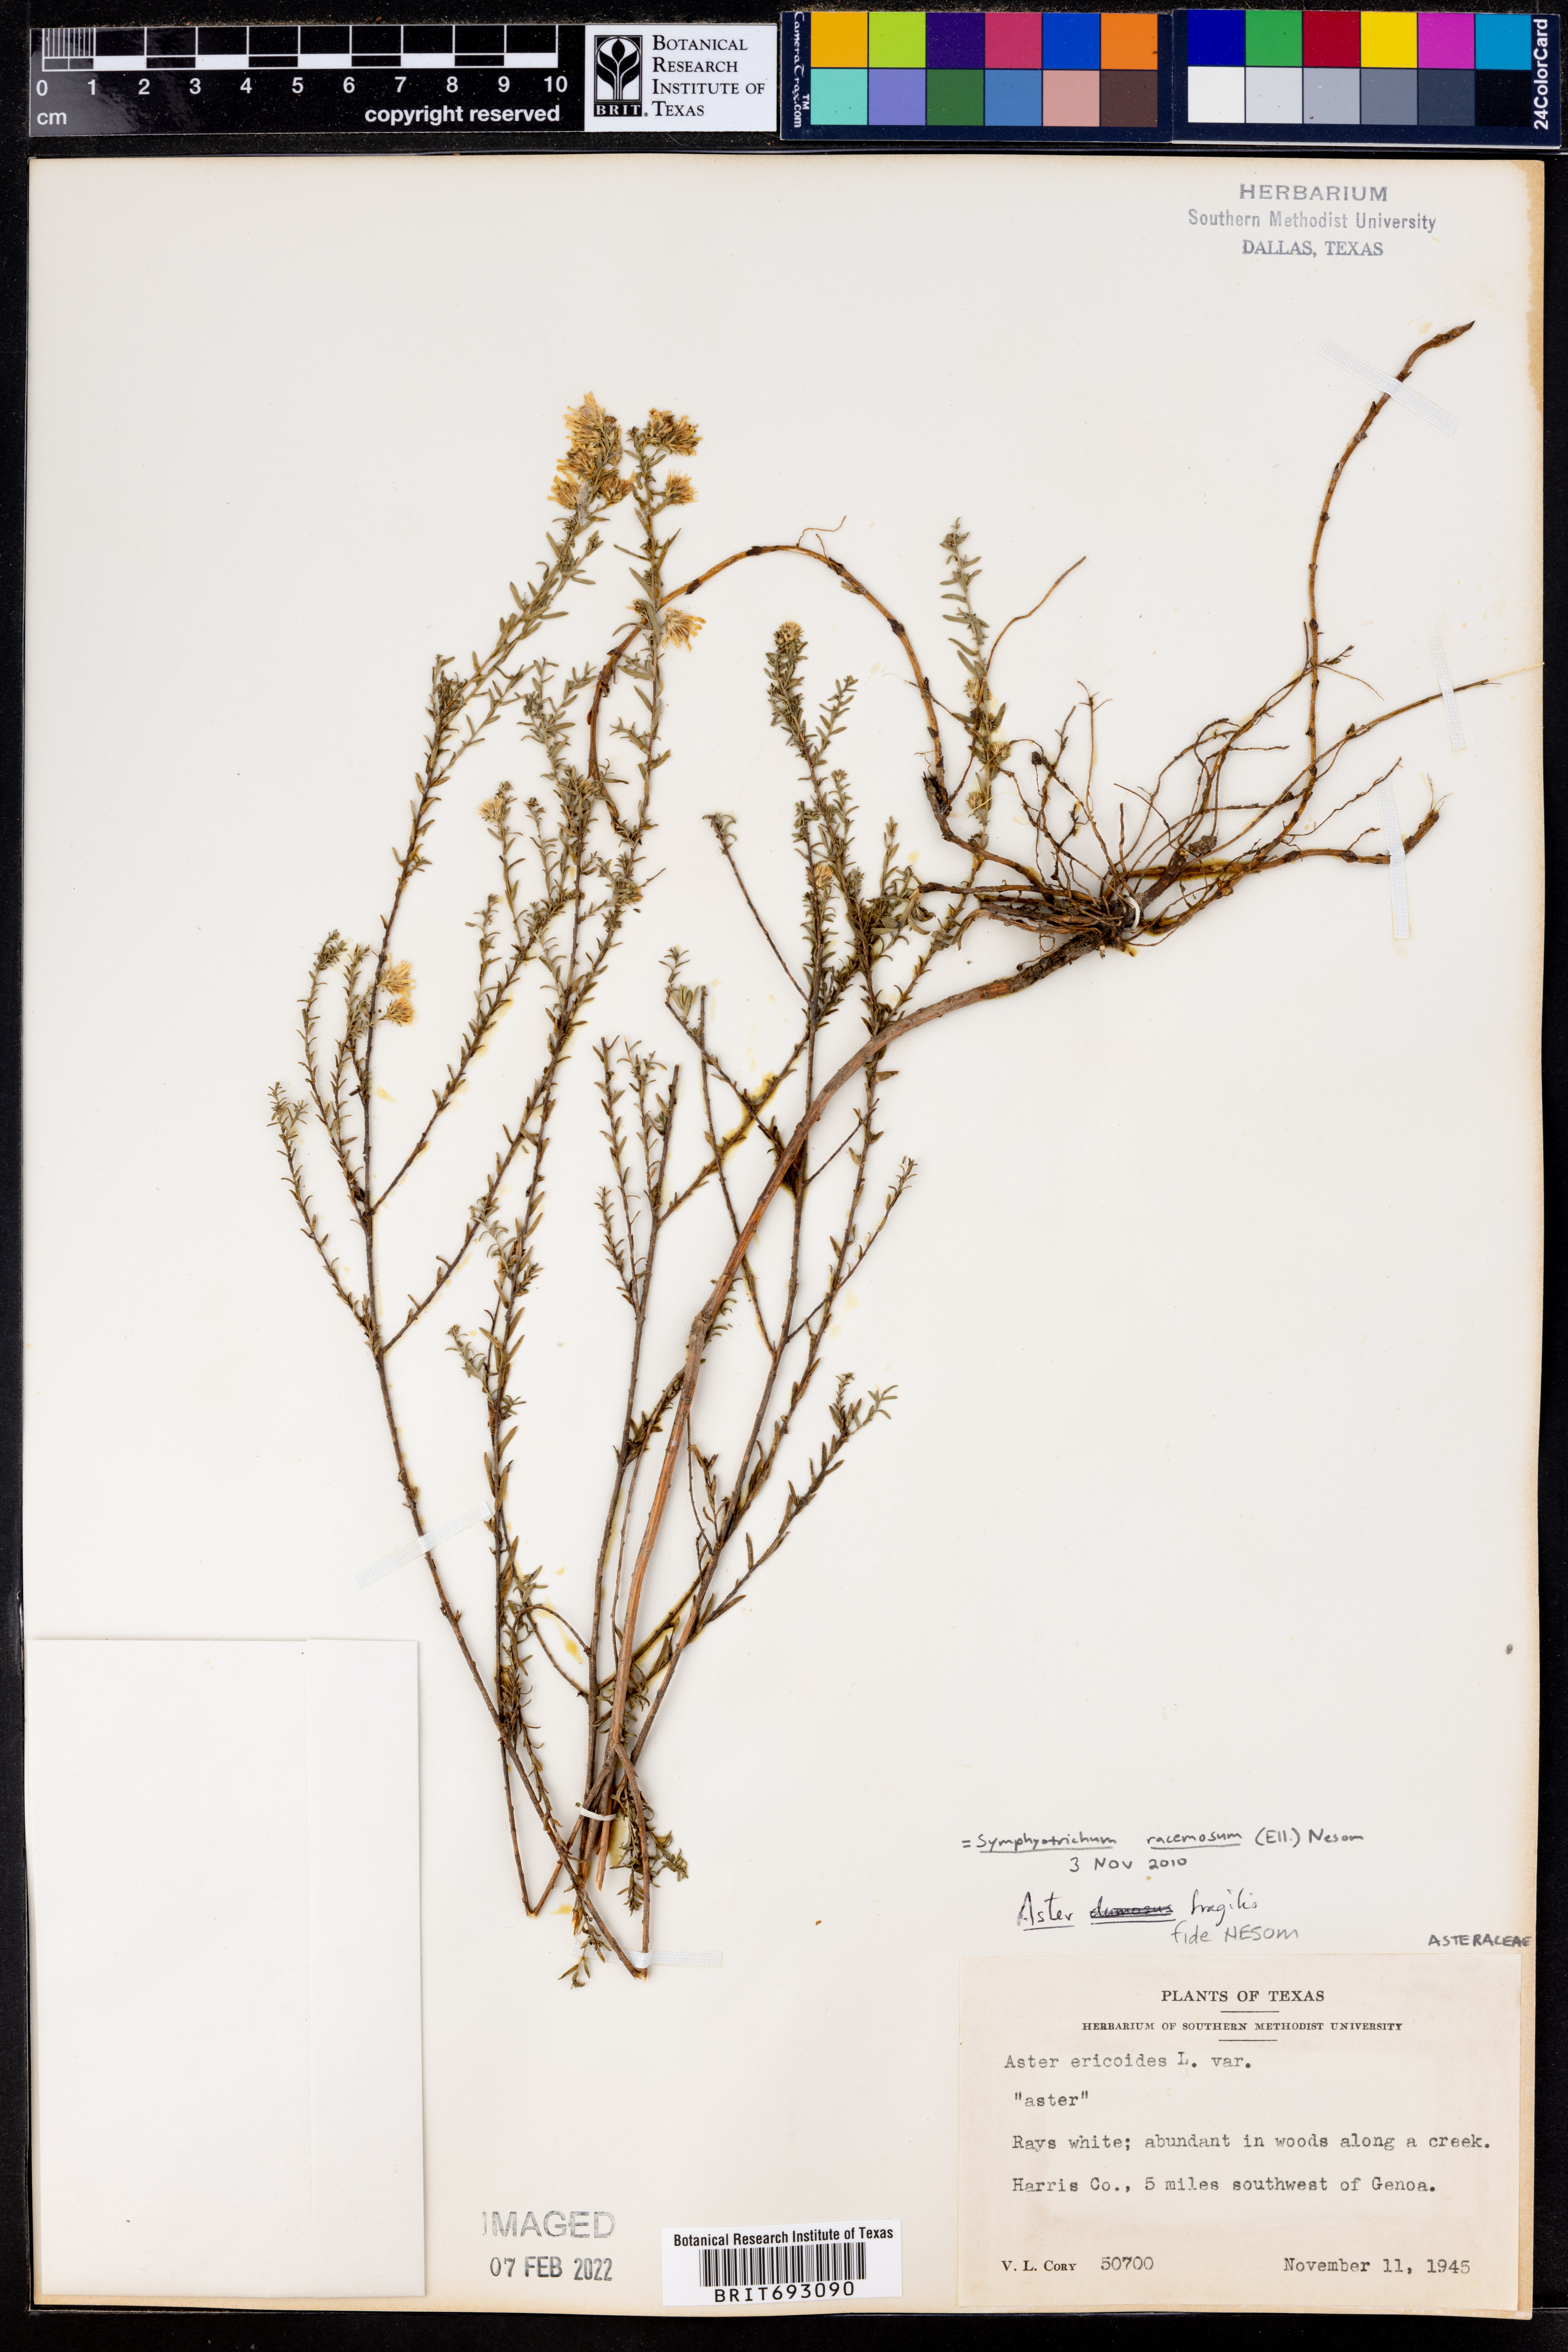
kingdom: Plantae
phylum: Tracheophyta
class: Magnoliopsida
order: Asterales
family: Asteraceae
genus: Symphyotrichum
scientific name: Symphyotrichum racemosum
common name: Small white aster
